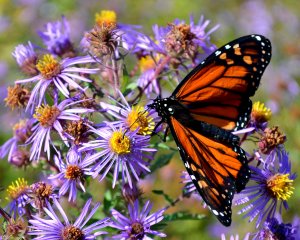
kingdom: Animalia
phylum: Arthropoda
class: Insecta
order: Lepidoptera
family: Nymphalidae
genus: Danaus
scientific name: Danaus plexippus
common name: Monarch
